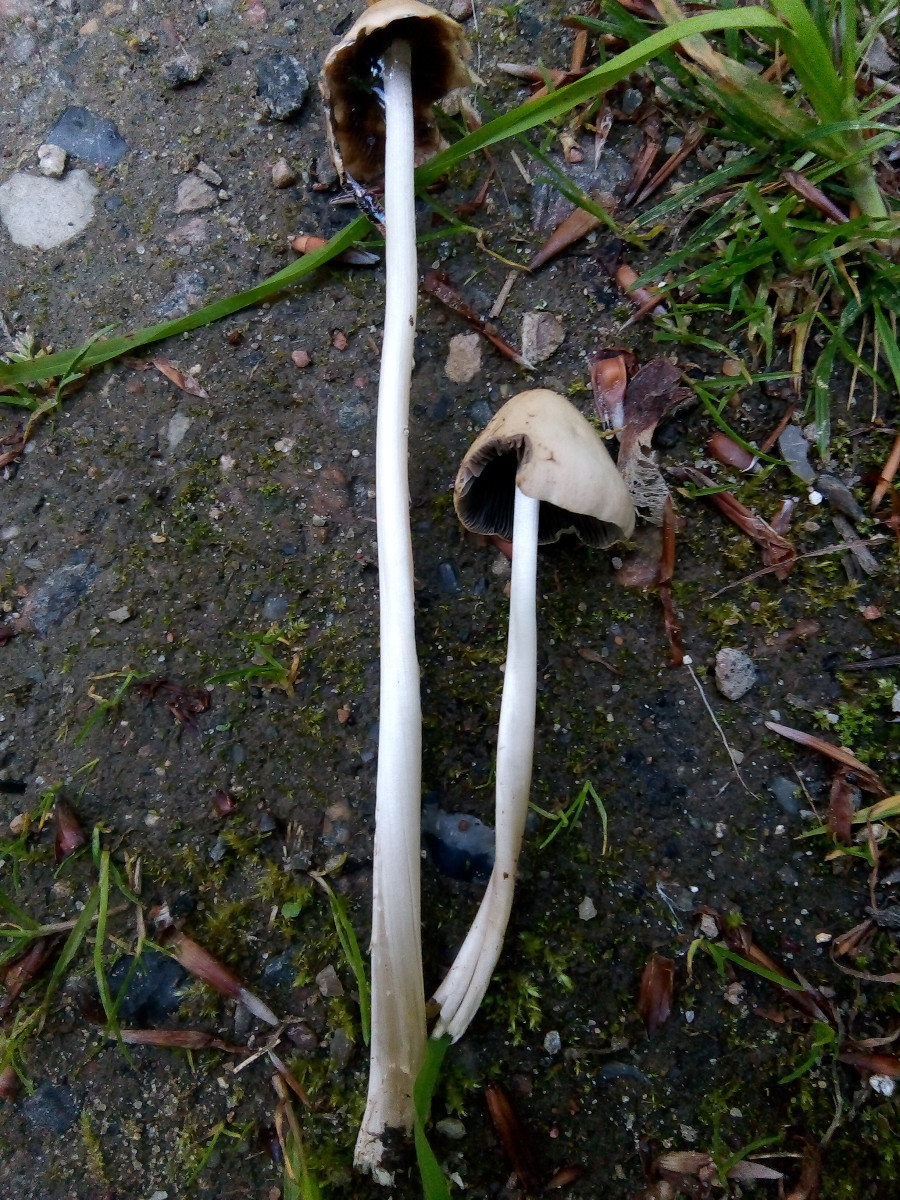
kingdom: Fungi
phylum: Basidiomycota
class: Agaricomycetes
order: Agaricales
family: Psathyrellaceae
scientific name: Psathyrellaceae
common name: mørkhatfamilien
